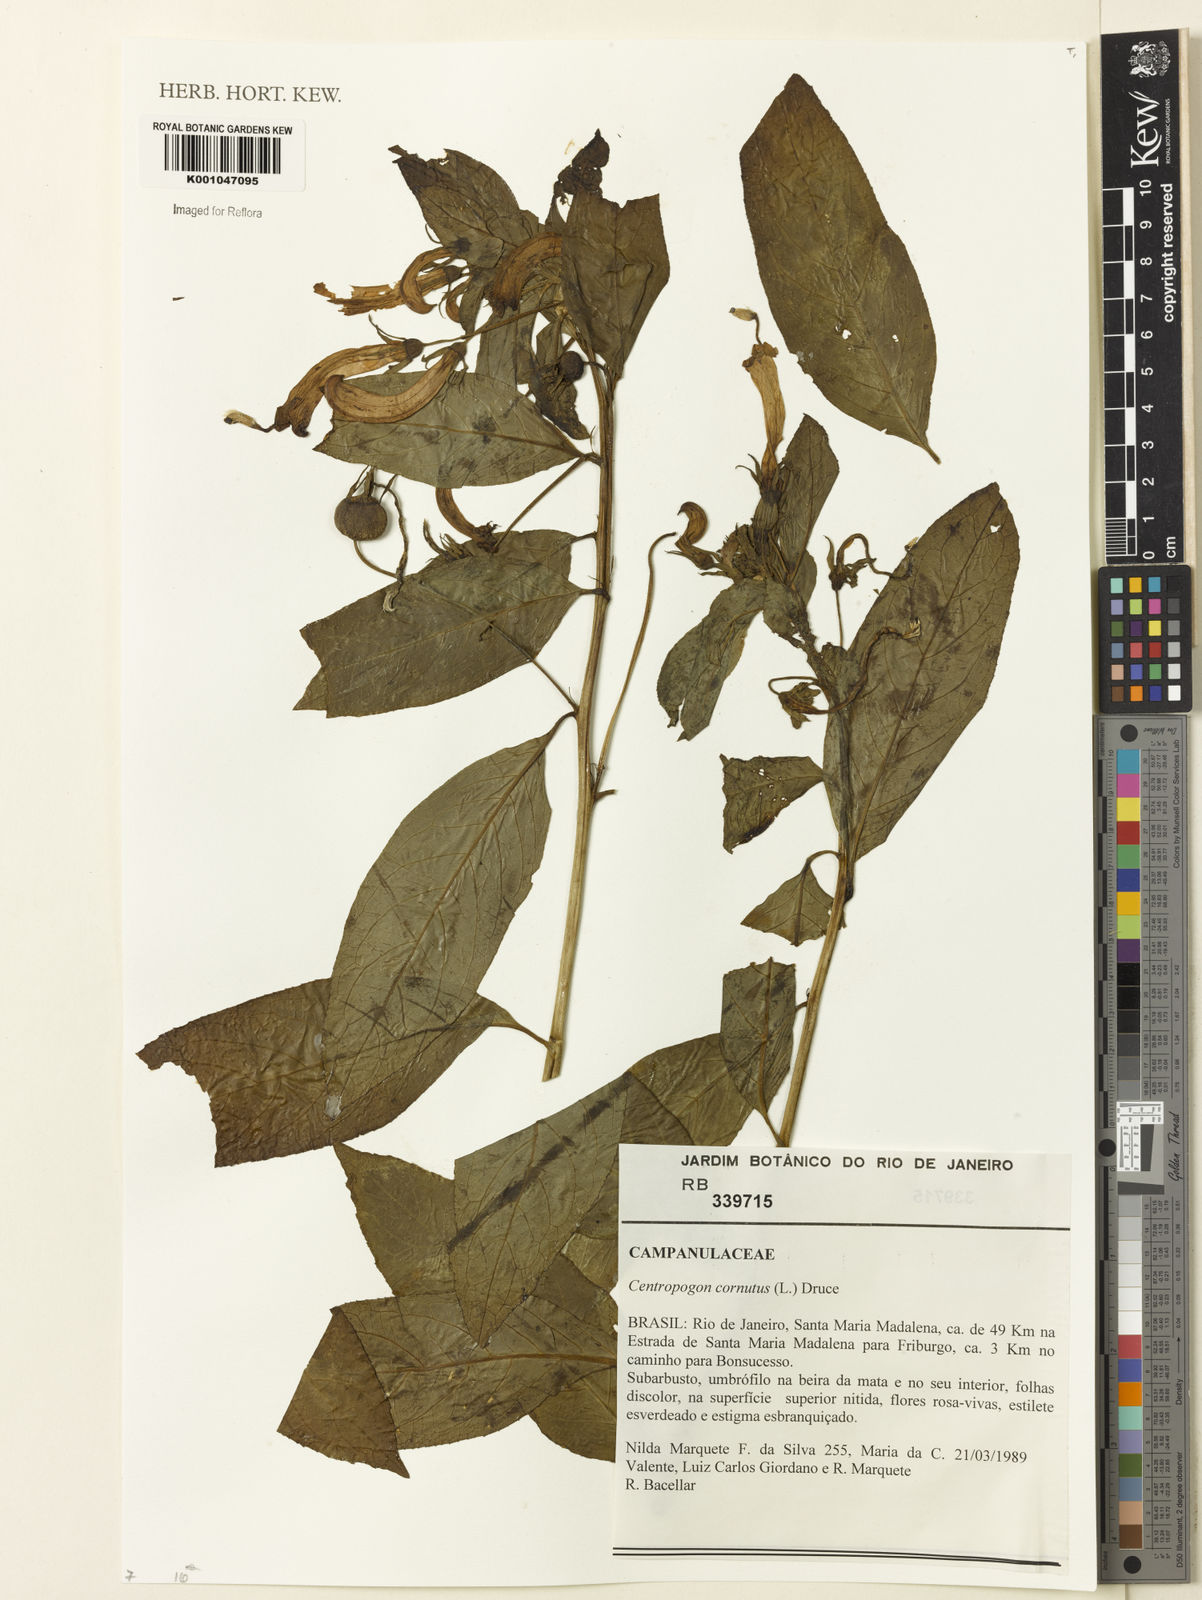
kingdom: Plantae
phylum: Tracheophyta
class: Magnoliopsida
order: Asterales
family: Campanulaceae
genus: Centropogon
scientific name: Centropogon cornutus
